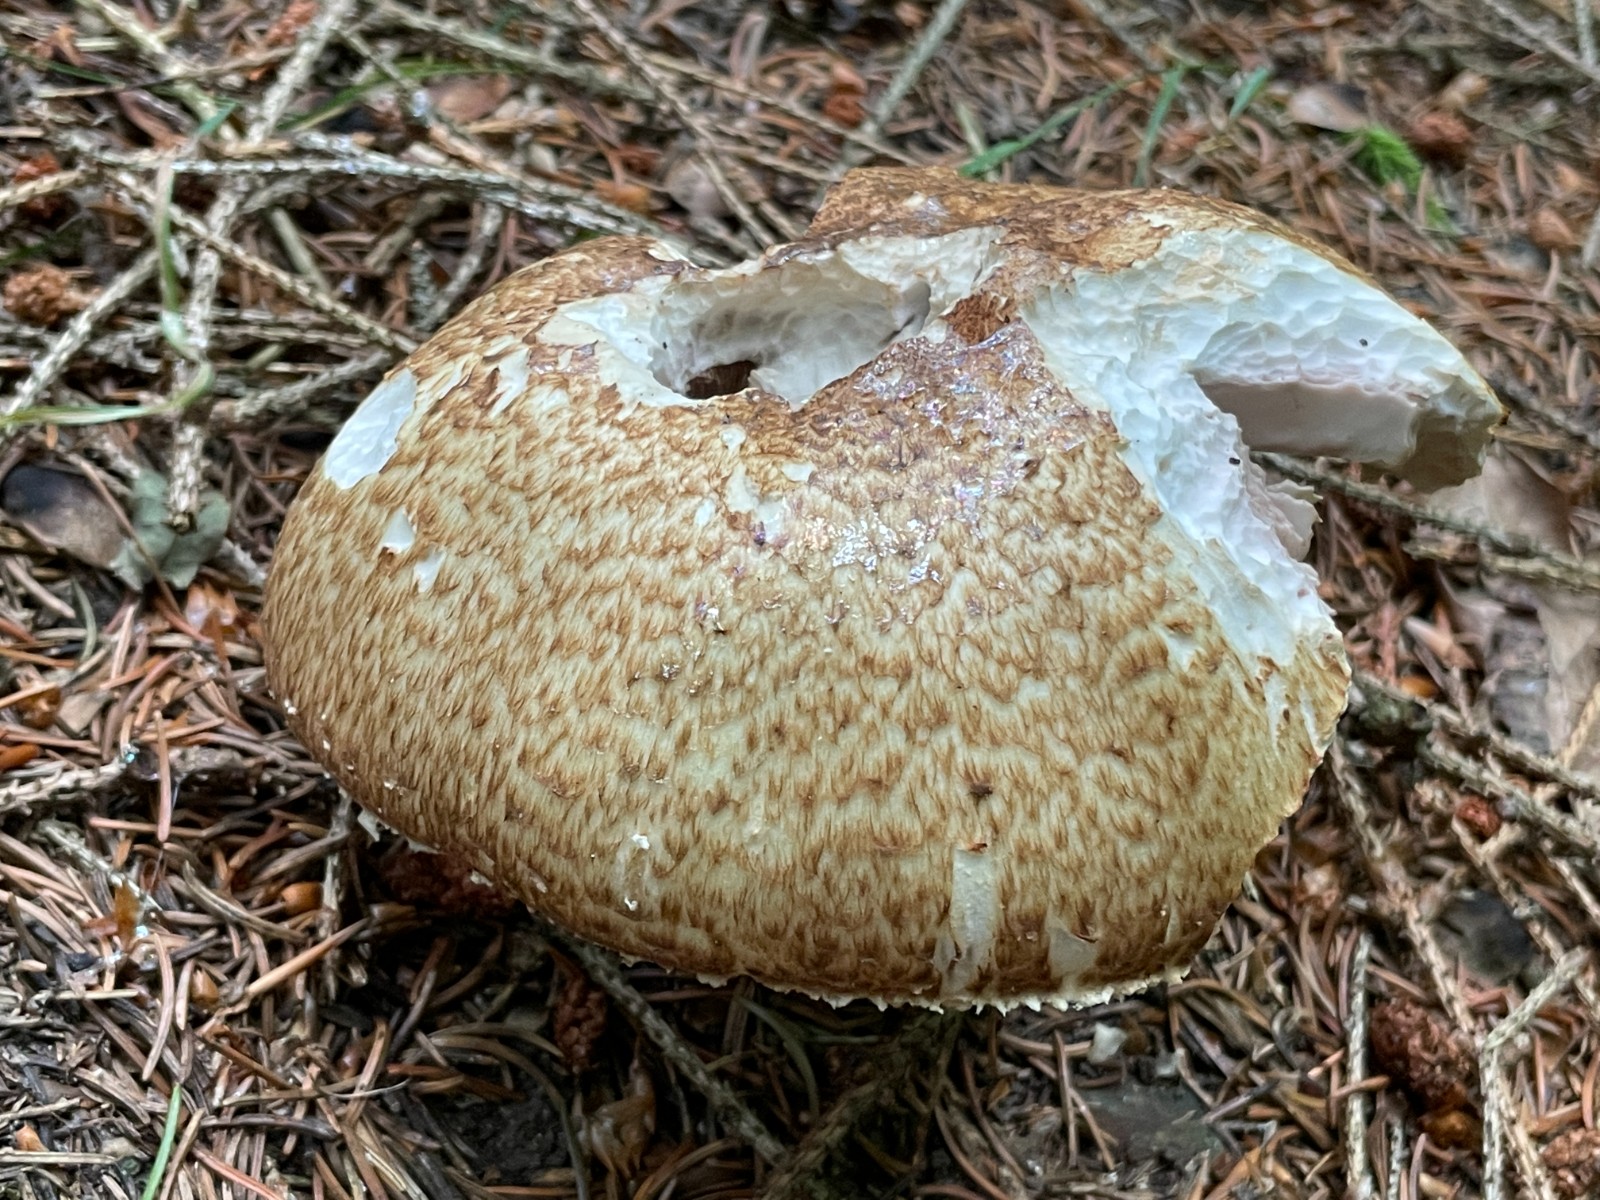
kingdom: Fungi
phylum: Basidiomycota
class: Agaricomycetes
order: Agaricales
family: Agaricaceae
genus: Agaricus
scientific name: Agaricus augustus
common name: prægtig champignon
